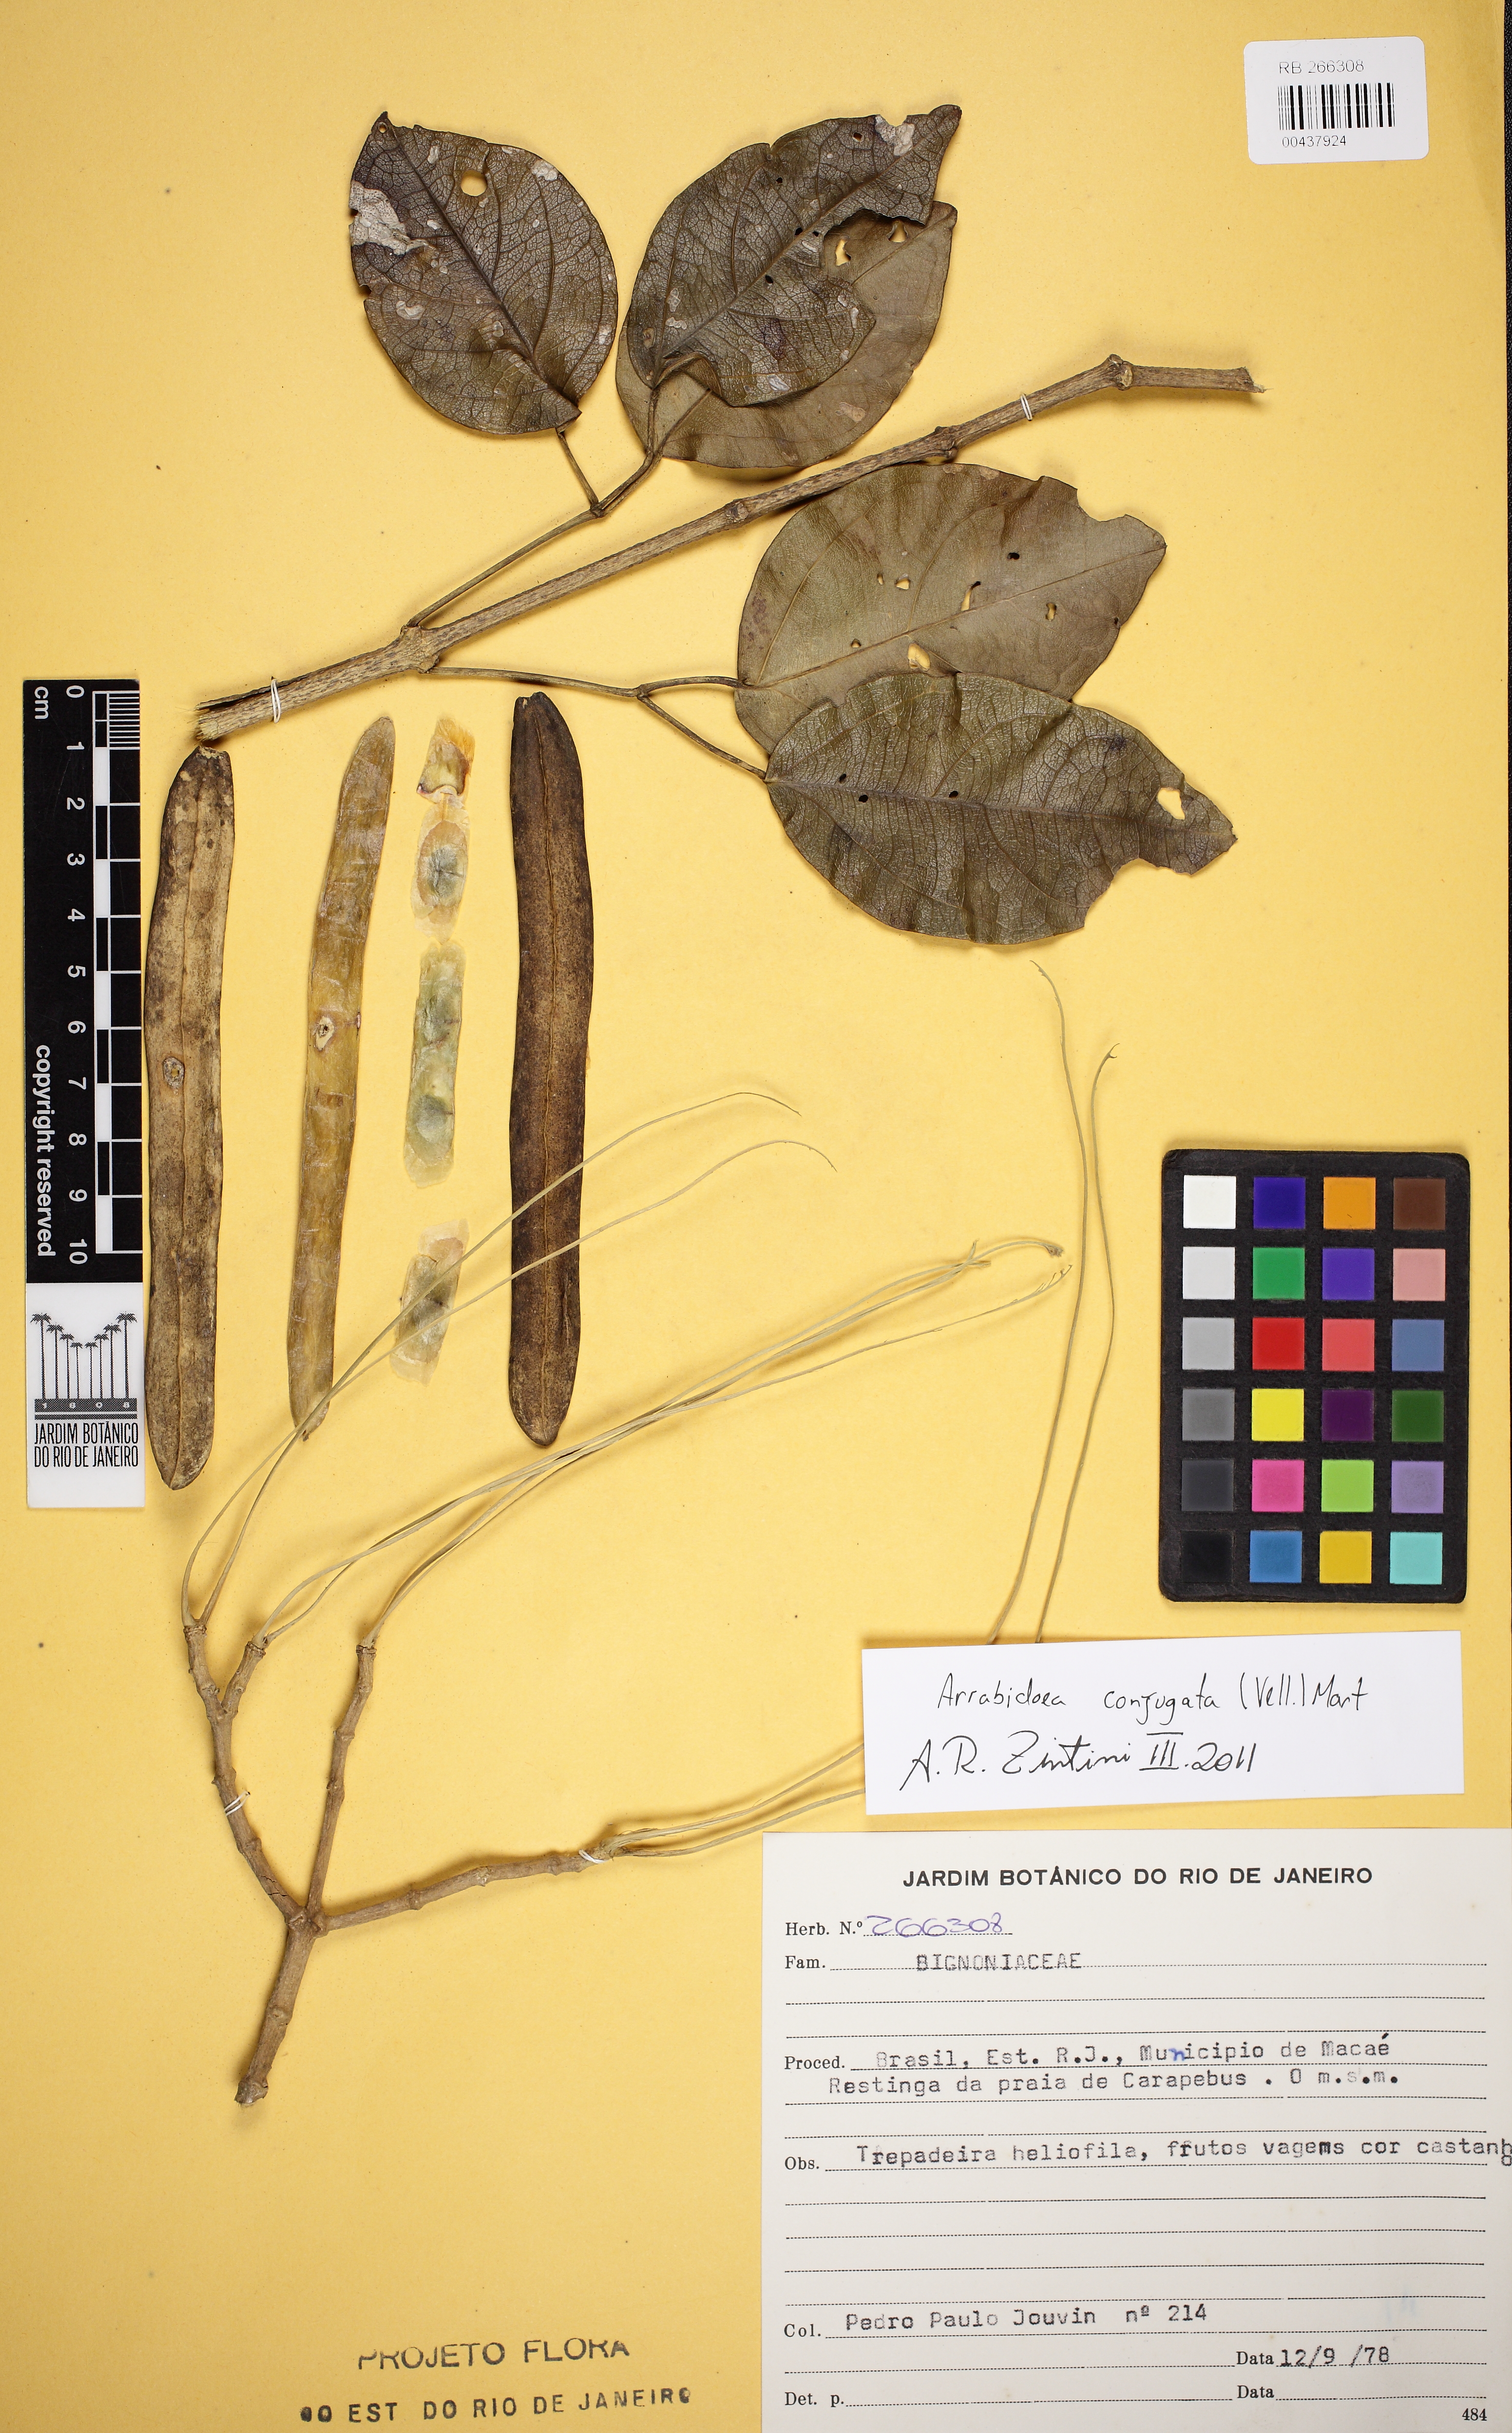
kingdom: Plantae
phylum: Tracheophyta
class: Magnoliopsida
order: Lamiales
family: Bignoniaceae
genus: Fridericia
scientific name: Fridericia conjugata
